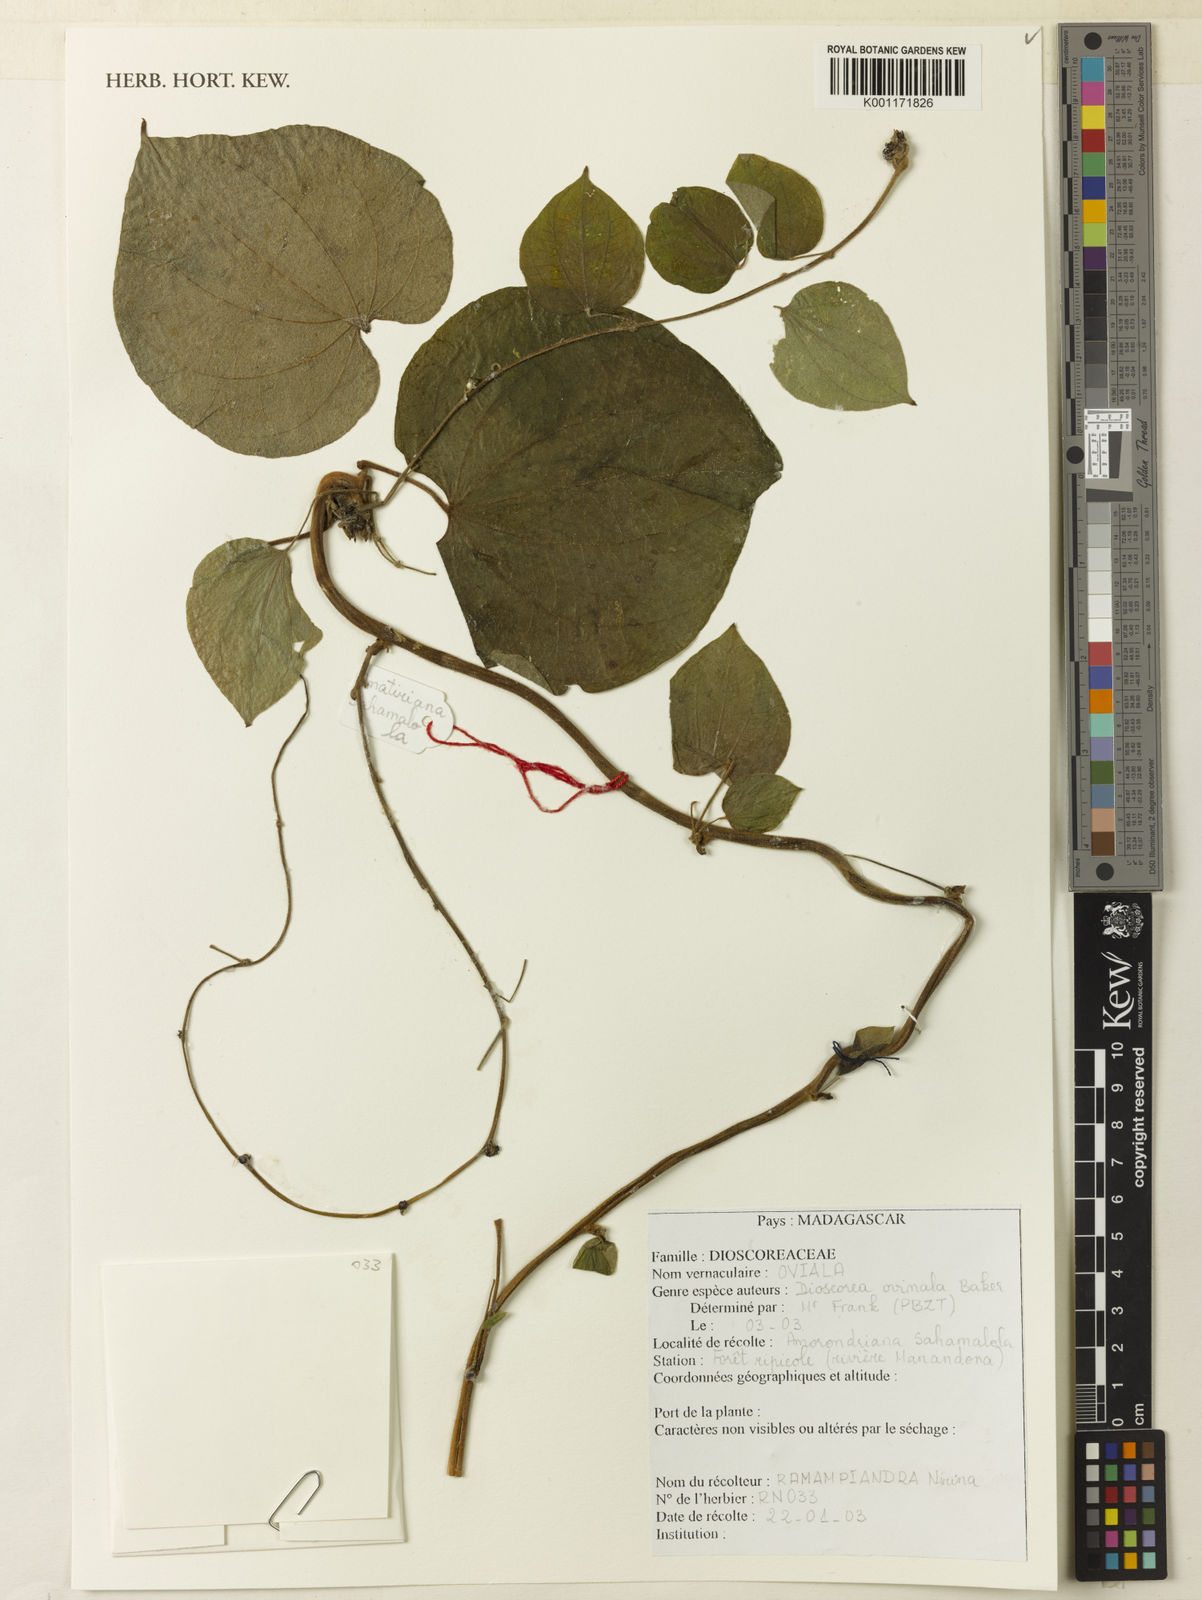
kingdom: Plantae
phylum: Tracheophyta
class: Liliopsida
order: Dioscoreales
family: Dioscoreaceae
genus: Dioscorea
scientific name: Dioscorea ovinala
